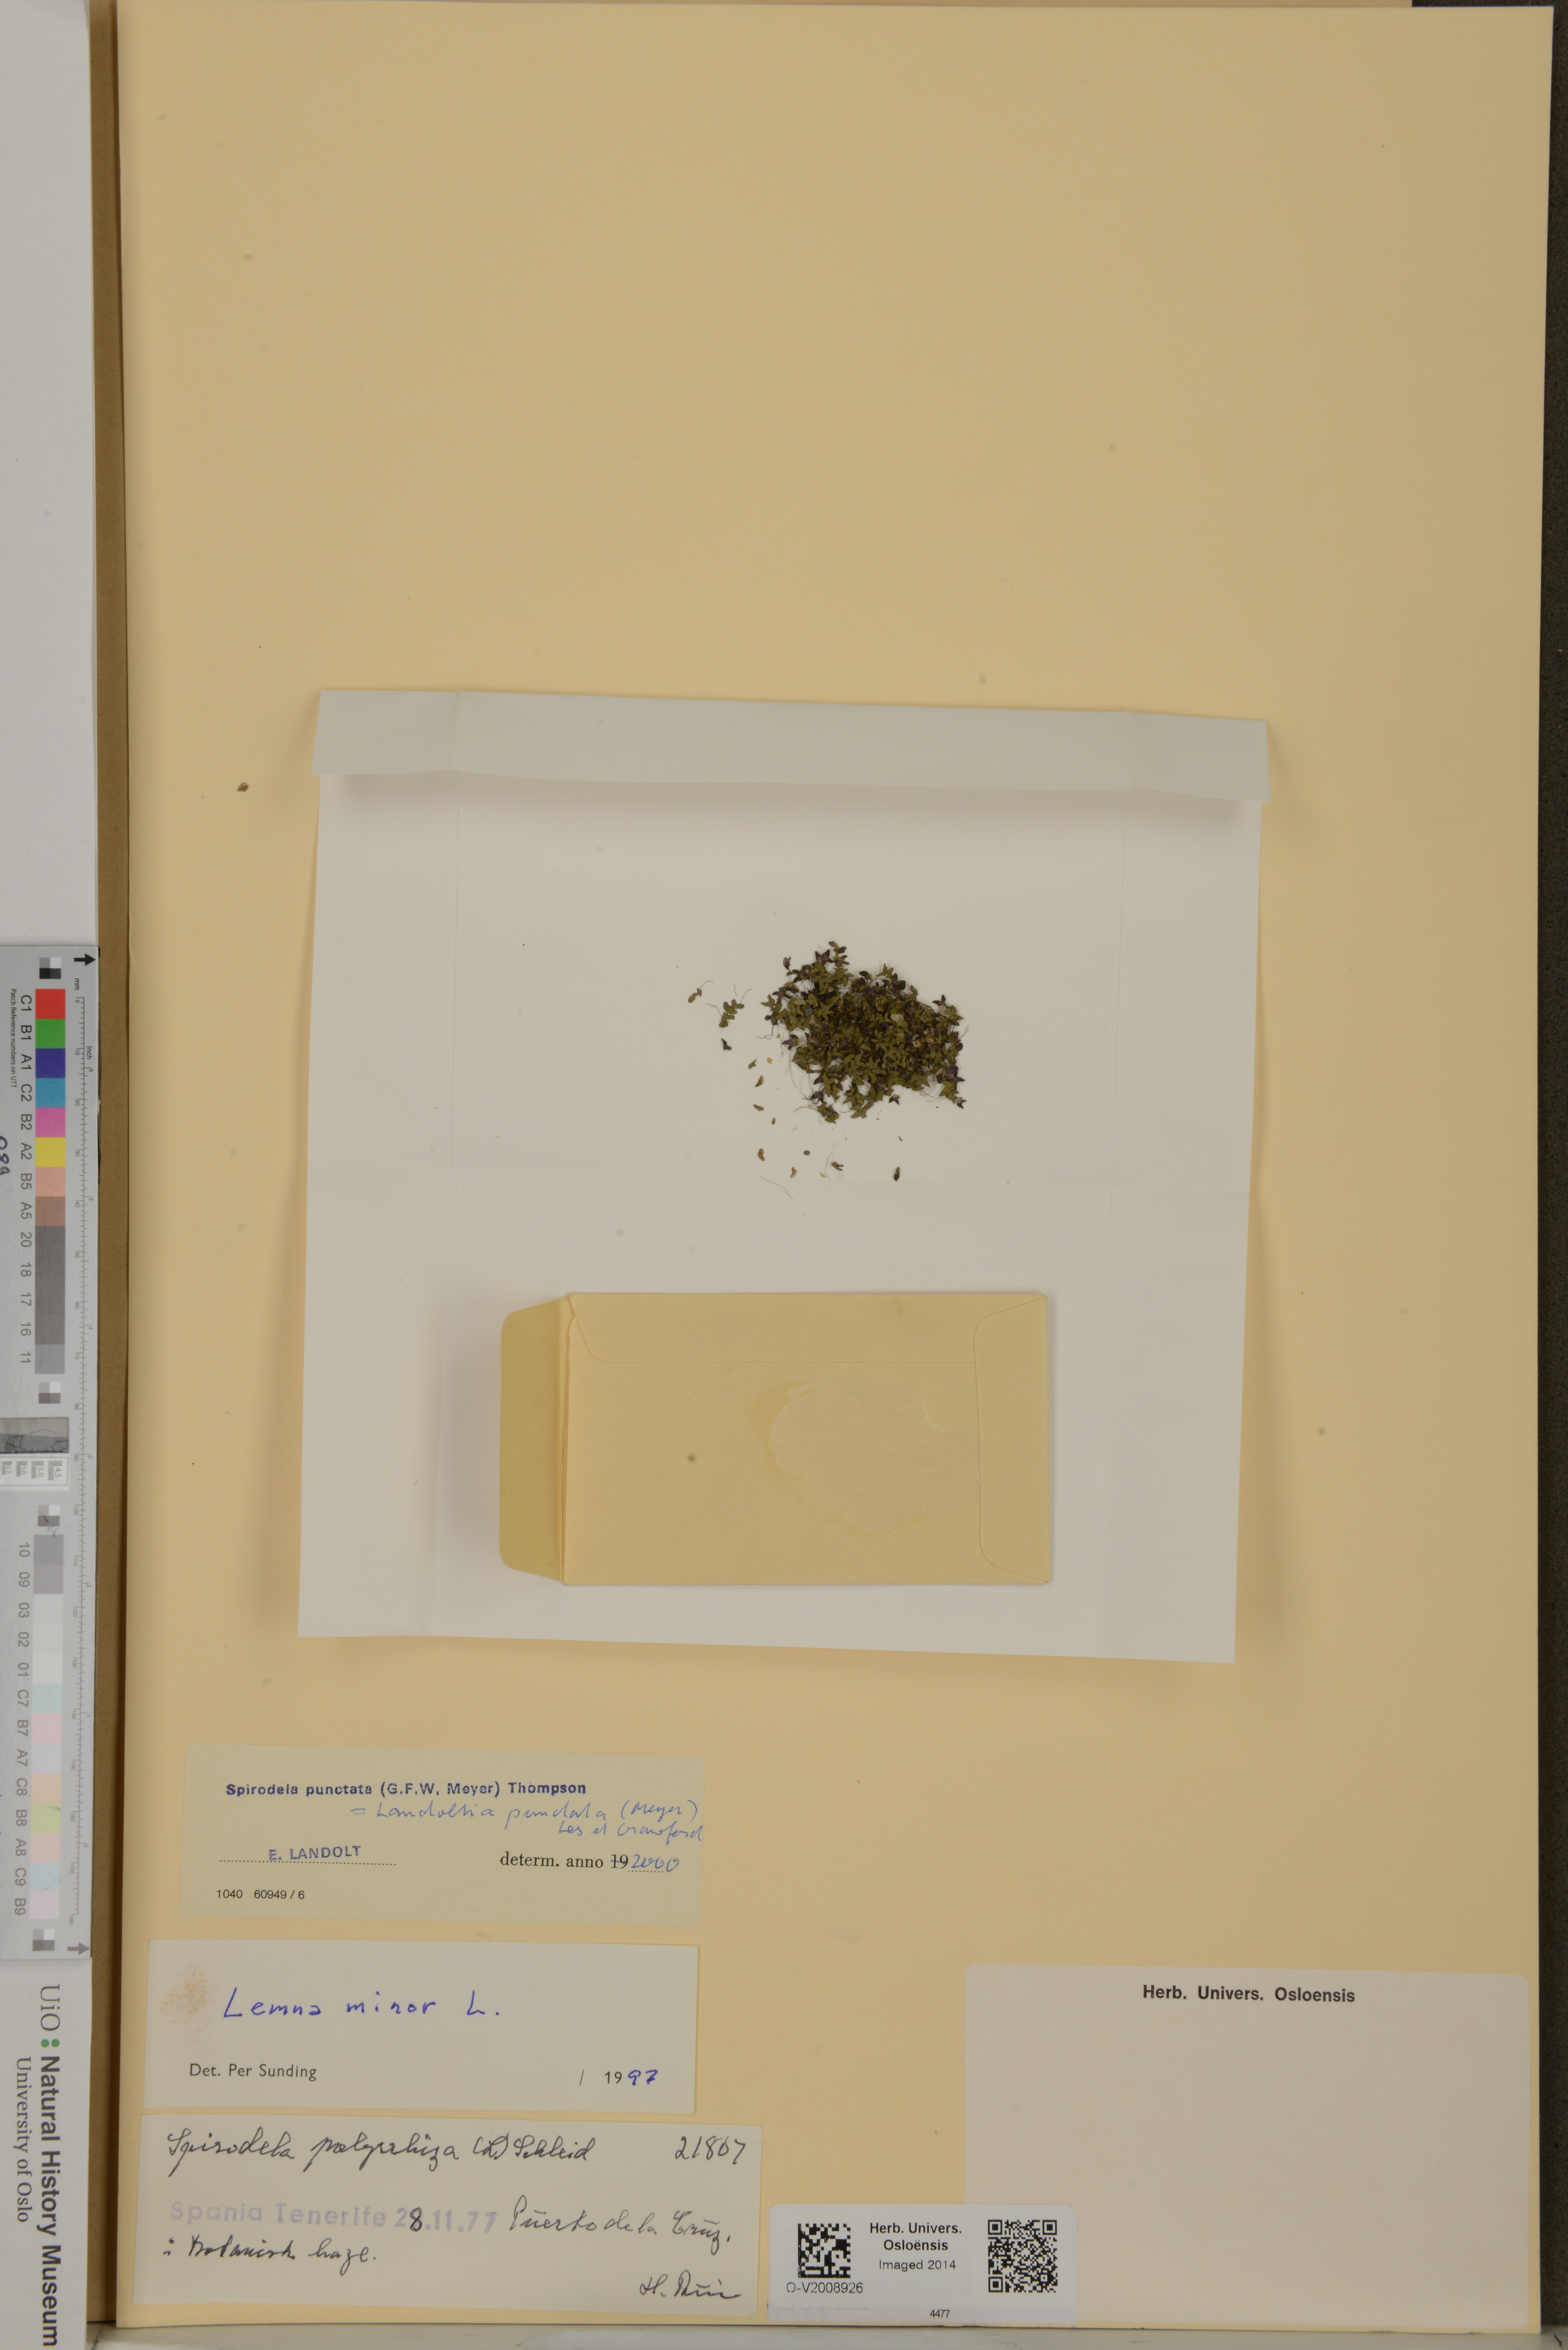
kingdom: Plantae
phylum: Tracheophyta
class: Liliopsida
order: Alismatales
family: Araceae
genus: Spirodela
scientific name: Spirodela punctata
